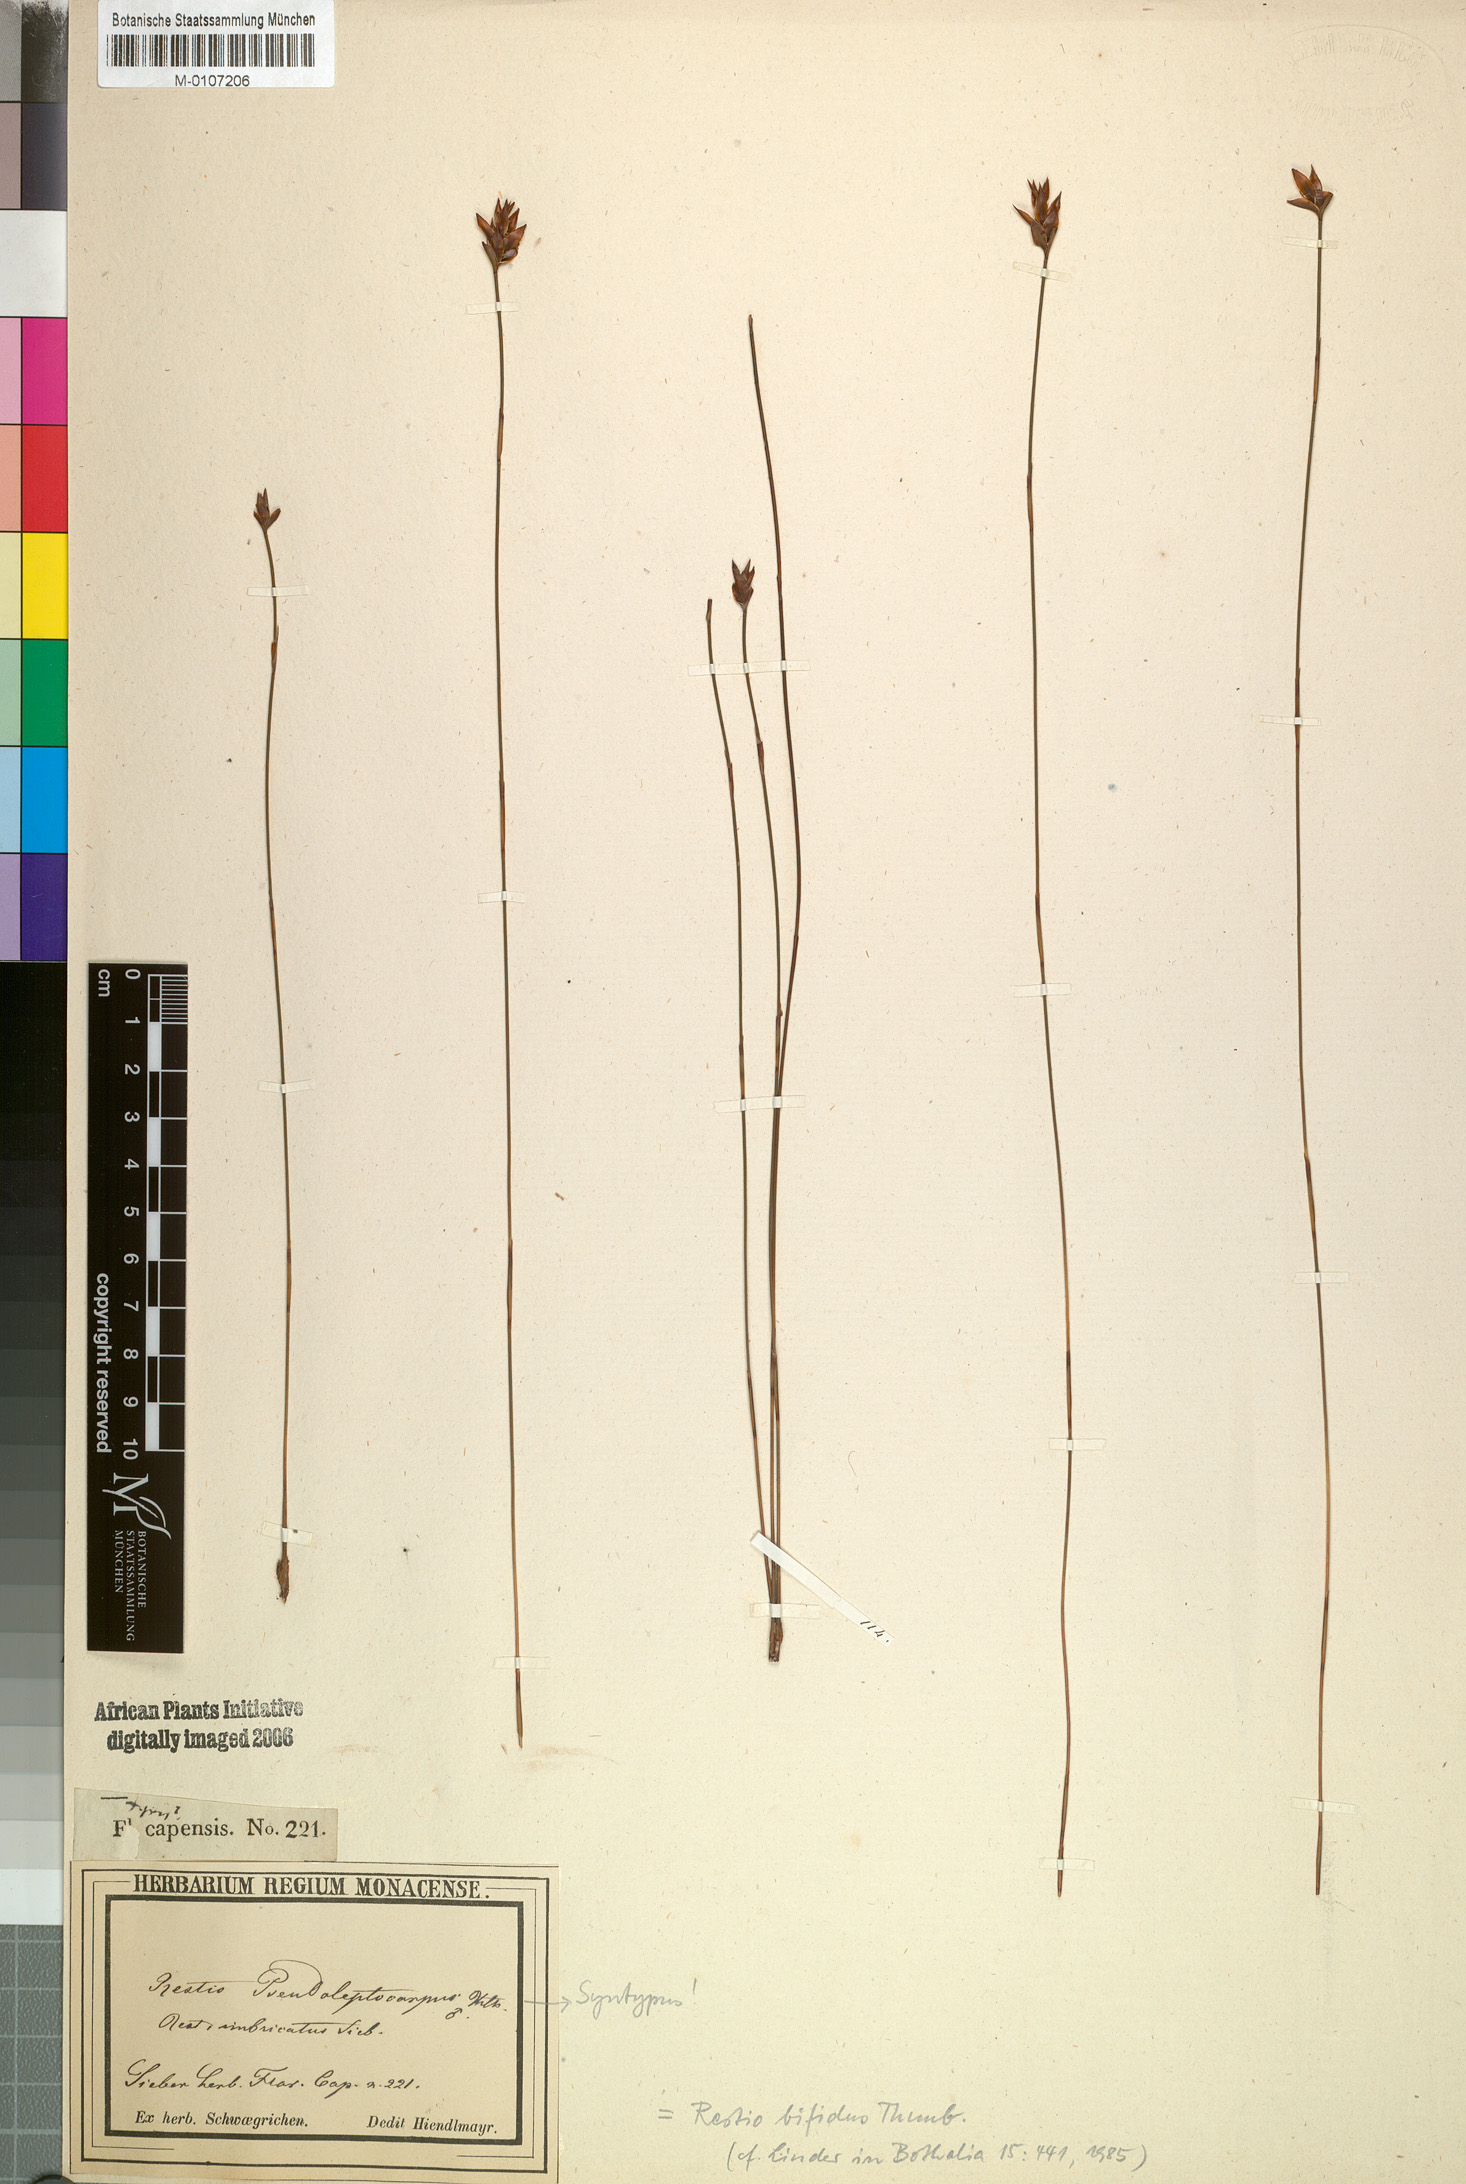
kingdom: Plantae
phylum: Tracheophyta
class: Liliopsida
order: Poales
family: Restionaceae
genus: Restio
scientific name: Restio bifidus
